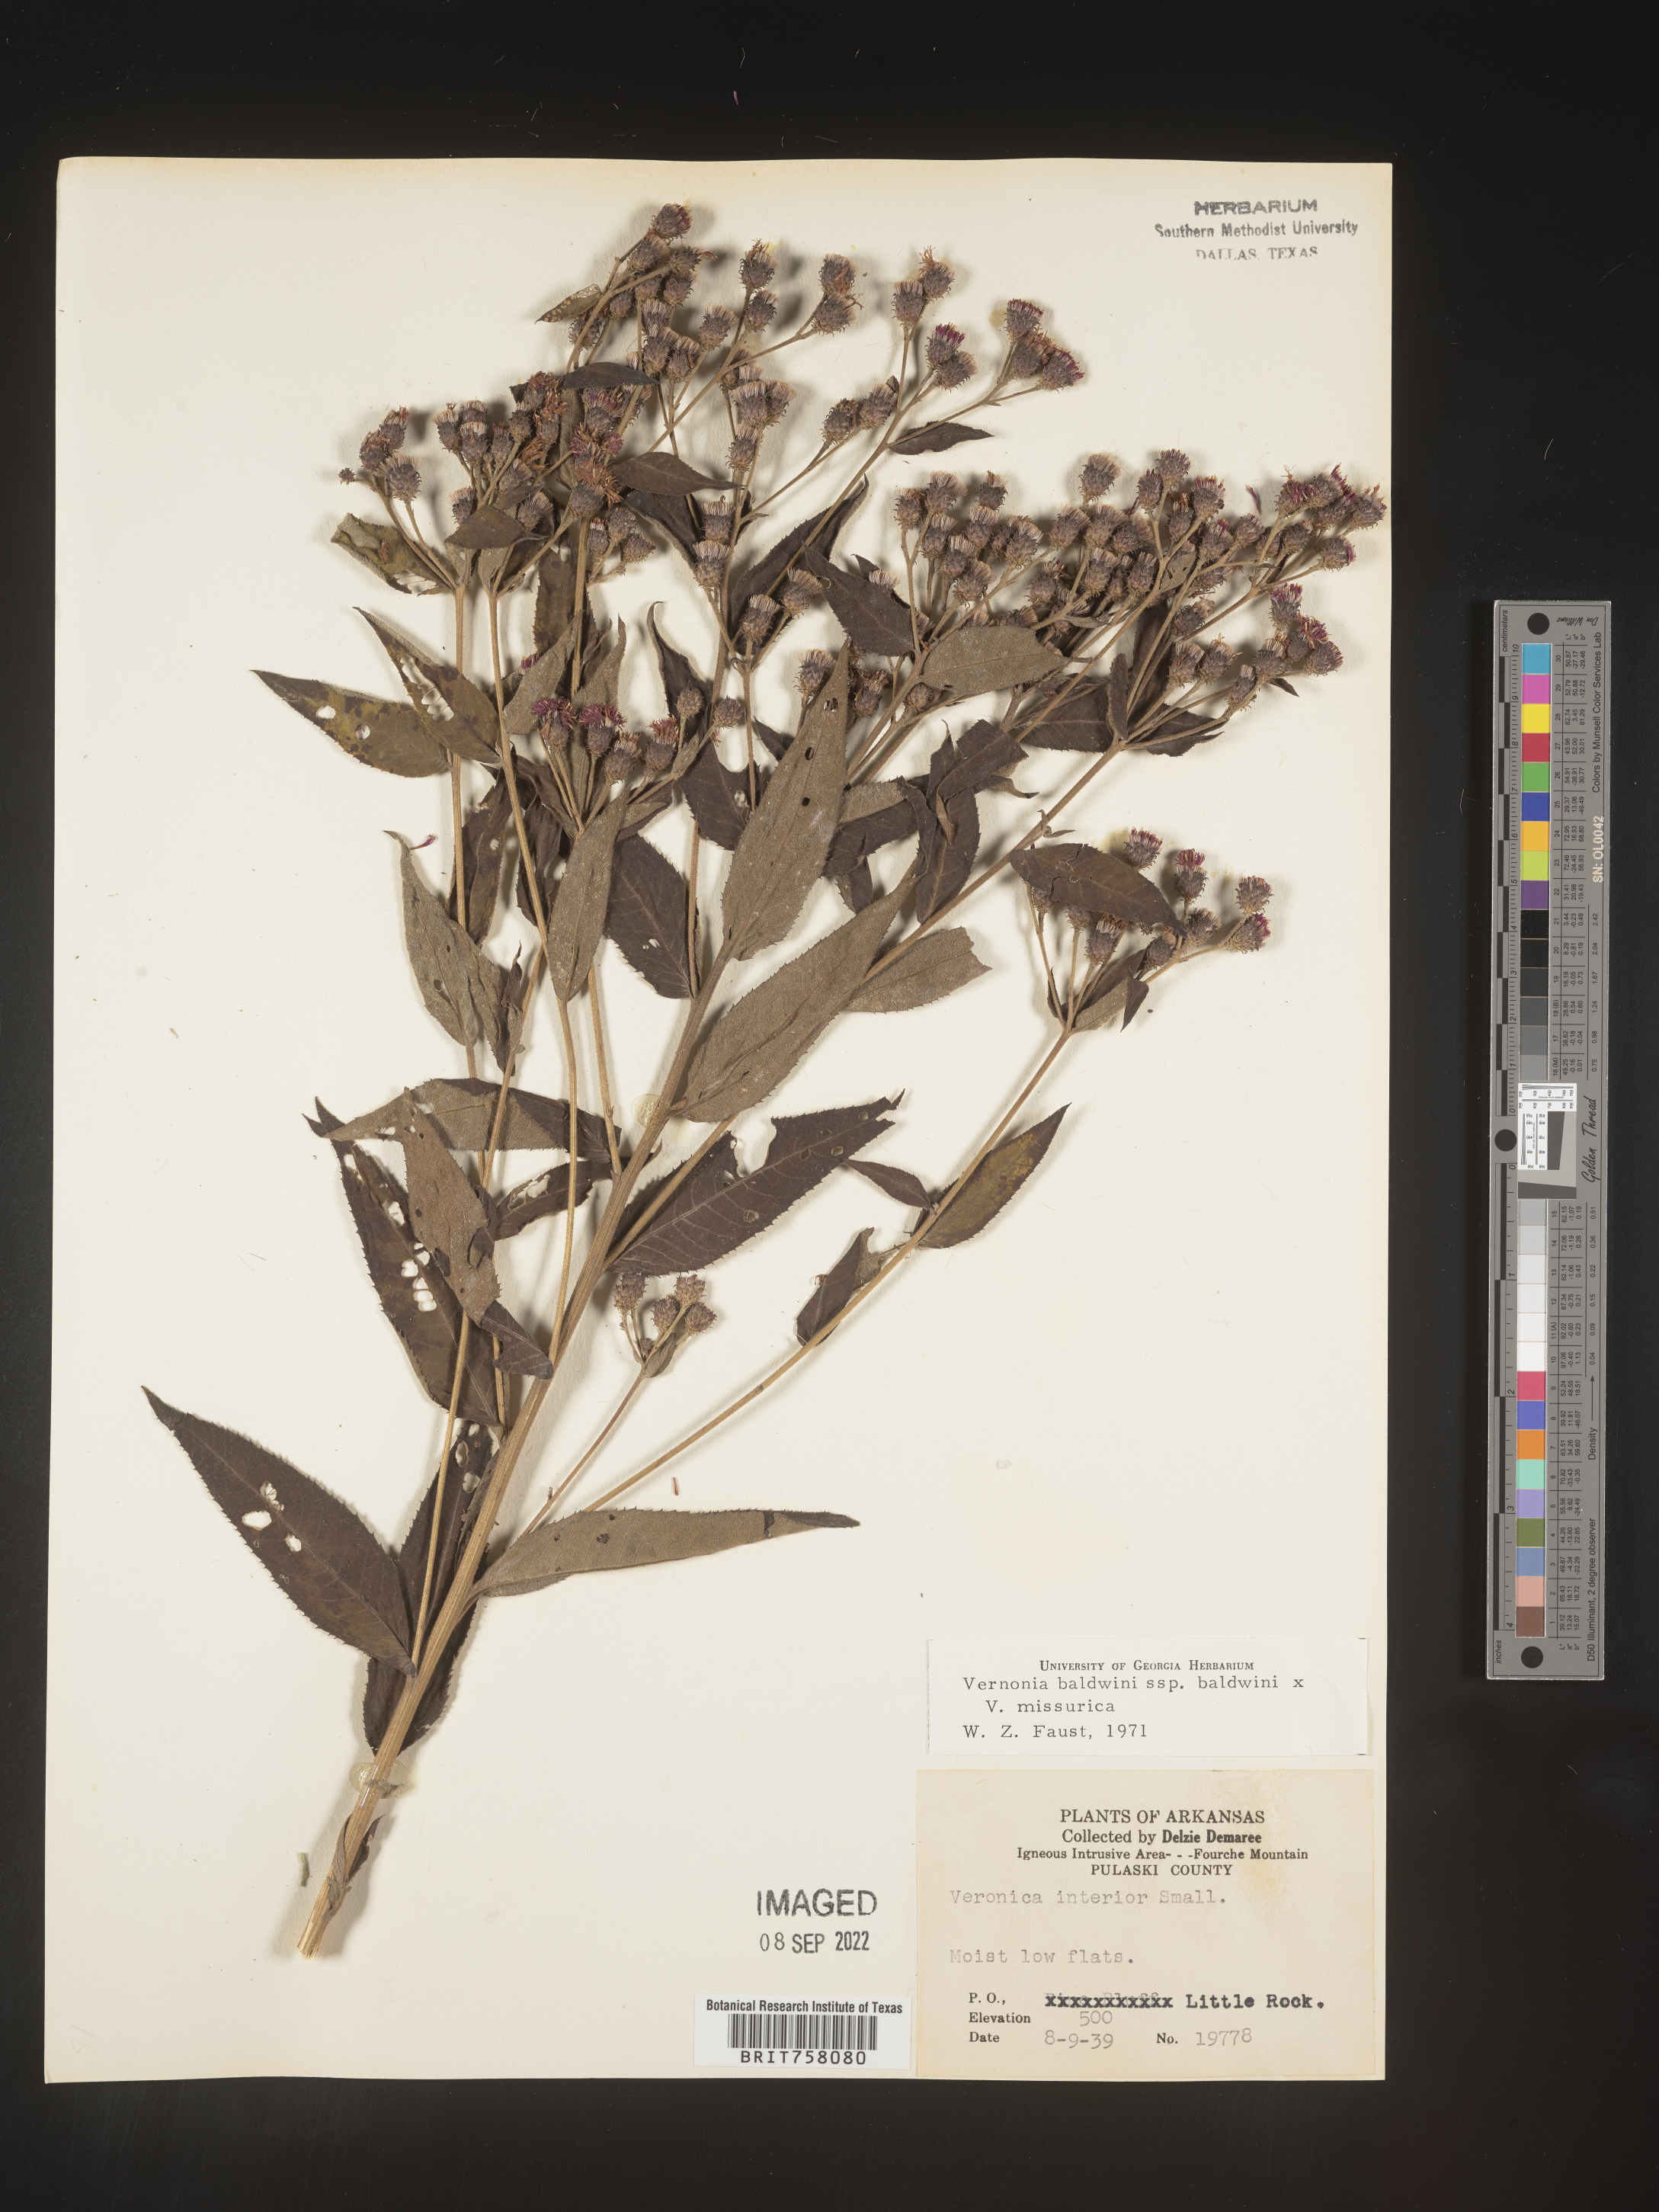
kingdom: Plantae
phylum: Tracheophyta
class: Magnoliopsida
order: Asterales
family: Asteraceae
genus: Vernonia
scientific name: Vernonia baldwinii
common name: Western ironweed
